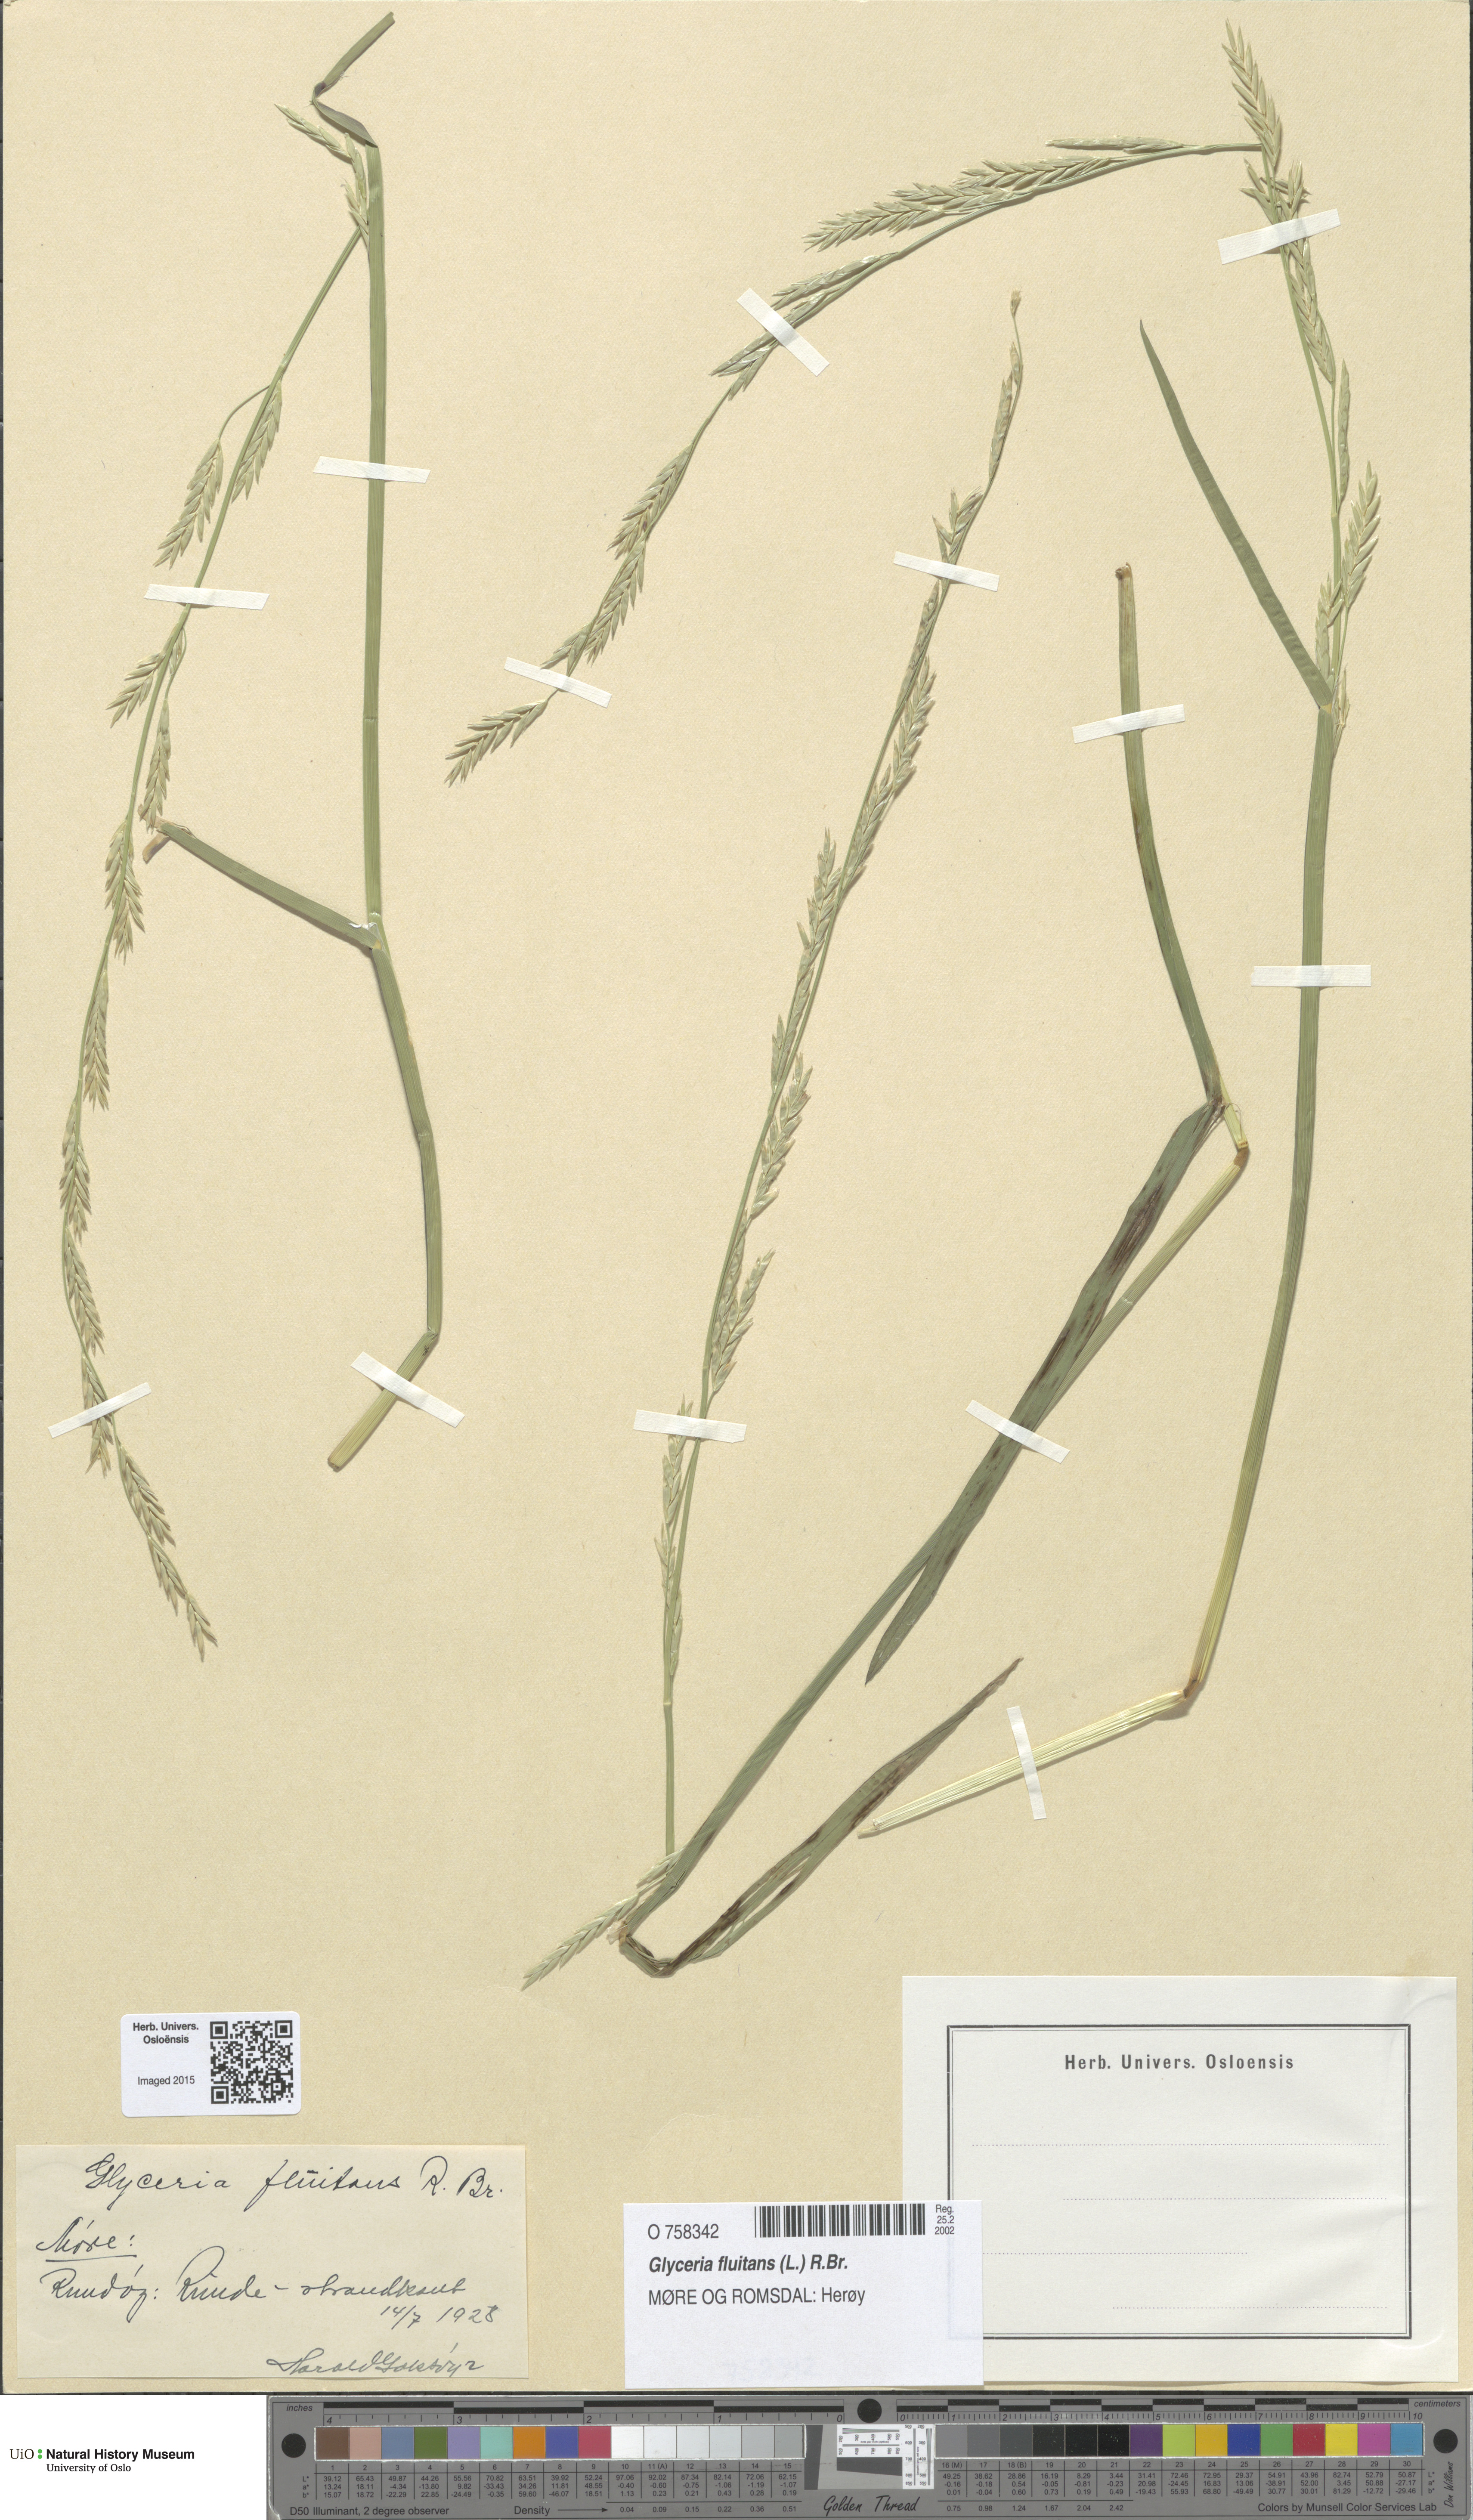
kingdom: Plantae
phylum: Tracheophyta
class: Liliopsida
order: Poales
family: Poaceae
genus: Glyceria
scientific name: Glyceria fluitans
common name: Floating sweet-grass
